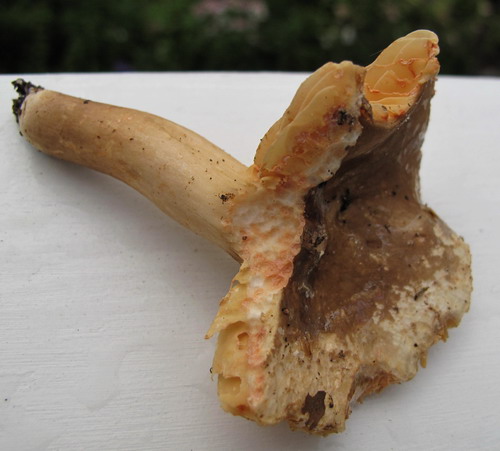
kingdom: Fungi
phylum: Basidiomycota
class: Agaricomycetes
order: Russulales
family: Russulaceae
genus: Lactarius
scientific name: Lactarius romagnesii
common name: fjernbladet mælkehat
